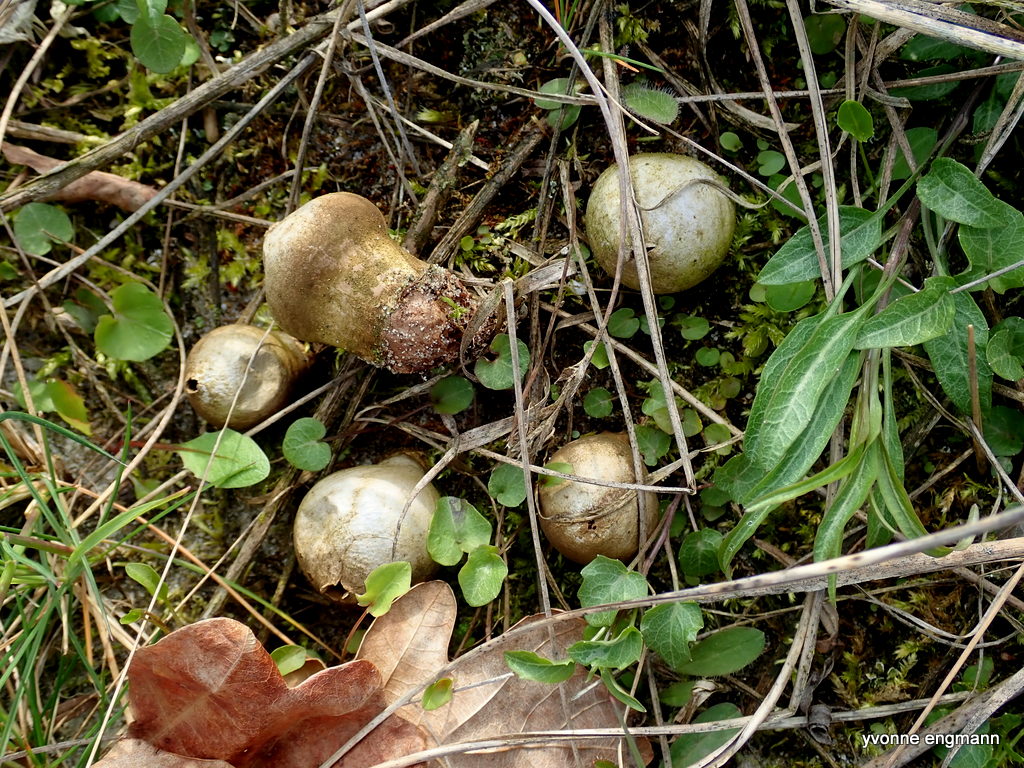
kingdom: Fungi
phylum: Basidiomycota
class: Agaricomycetes
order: Agaricales
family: Lycoperdaceae
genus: Lycoperdon
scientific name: Lycoperdon lividum
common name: mark-støvbold
